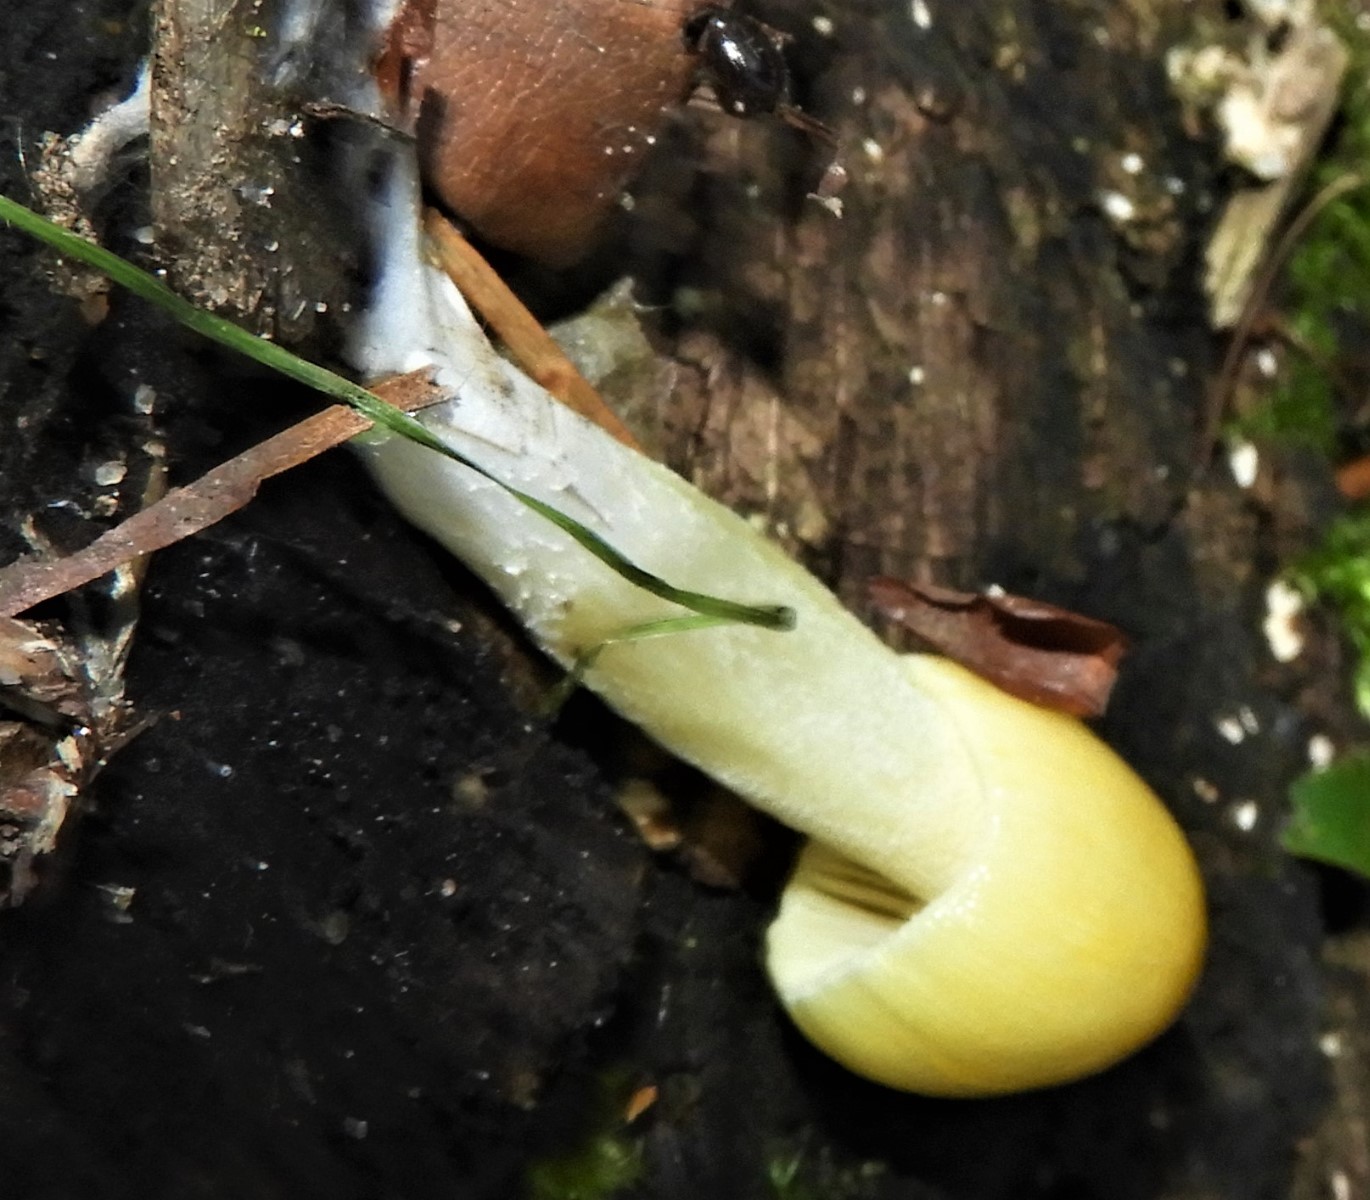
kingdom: Fungi
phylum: Basidiomycota
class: Agaricomycetes
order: Agaricales
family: Bolbitiaceae
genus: Bolbitius
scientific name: Bolbitius titubans
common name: almindelig gulhat
